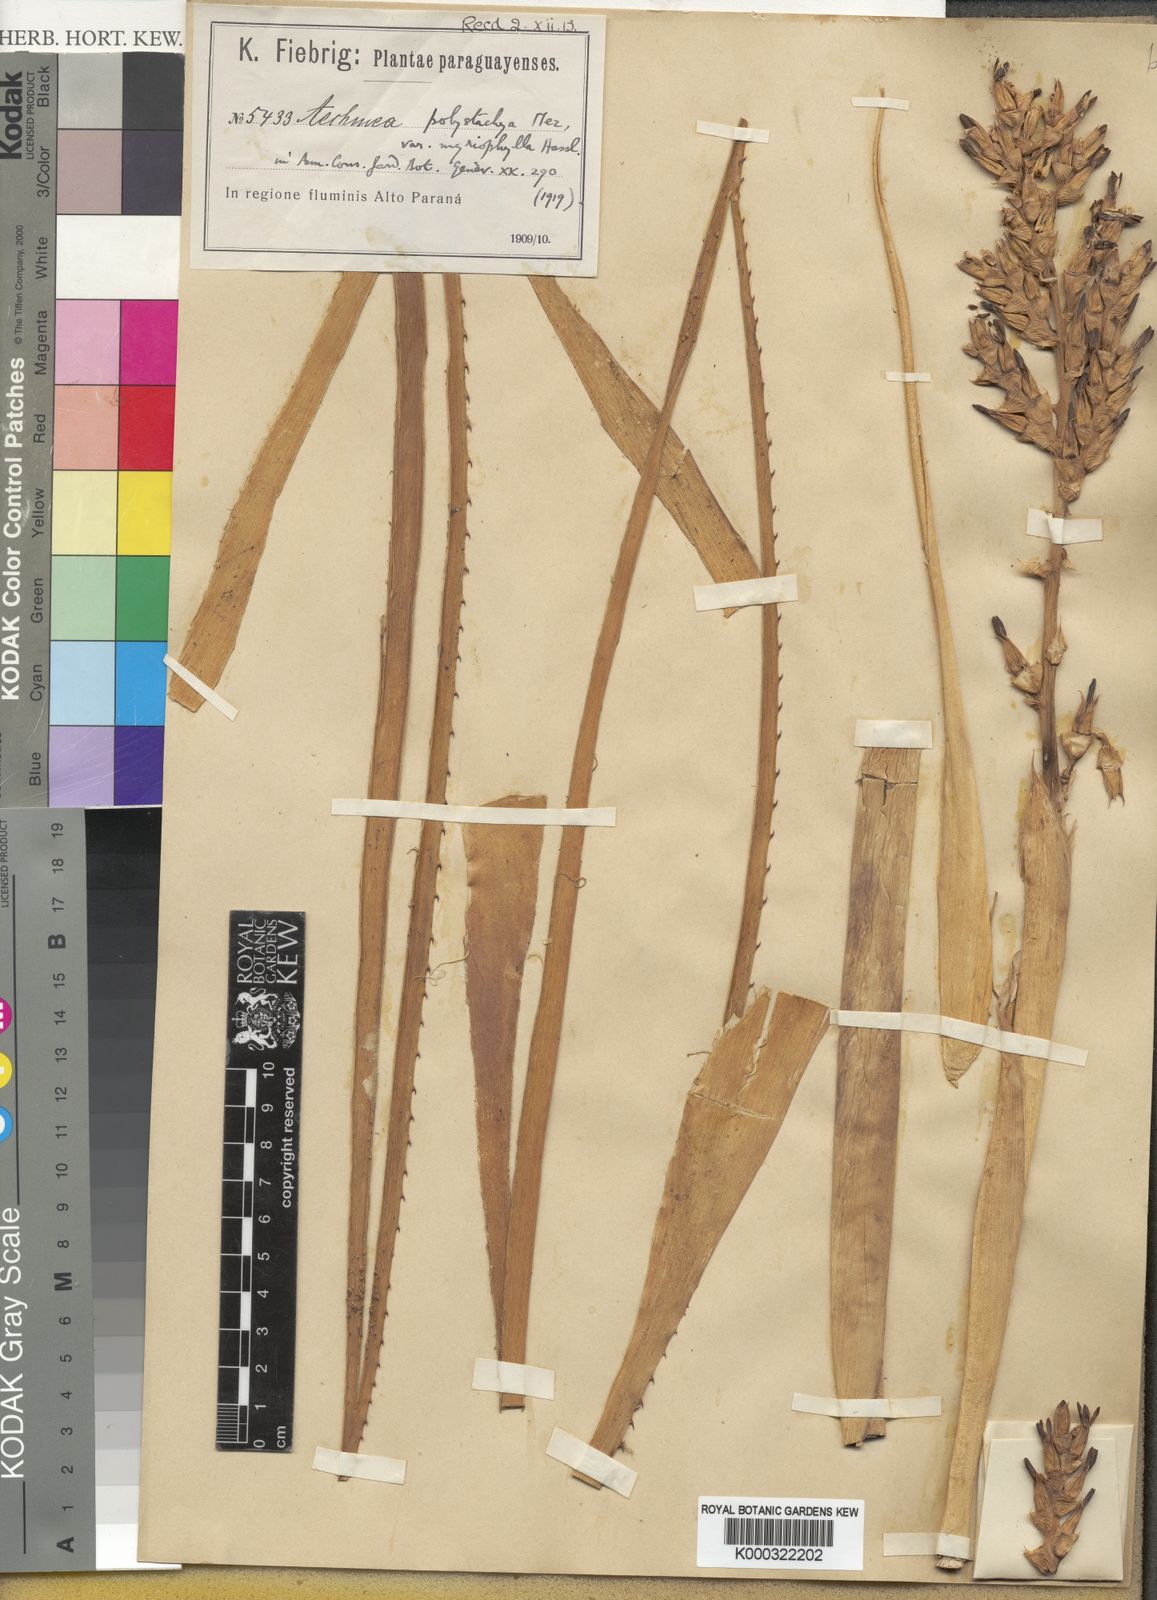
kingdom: Plantae
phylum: Tracheophyta
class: Liliopsida
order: Poales
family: Bromeliaceae
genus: Aechmea
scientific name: Aechmea distichantha
